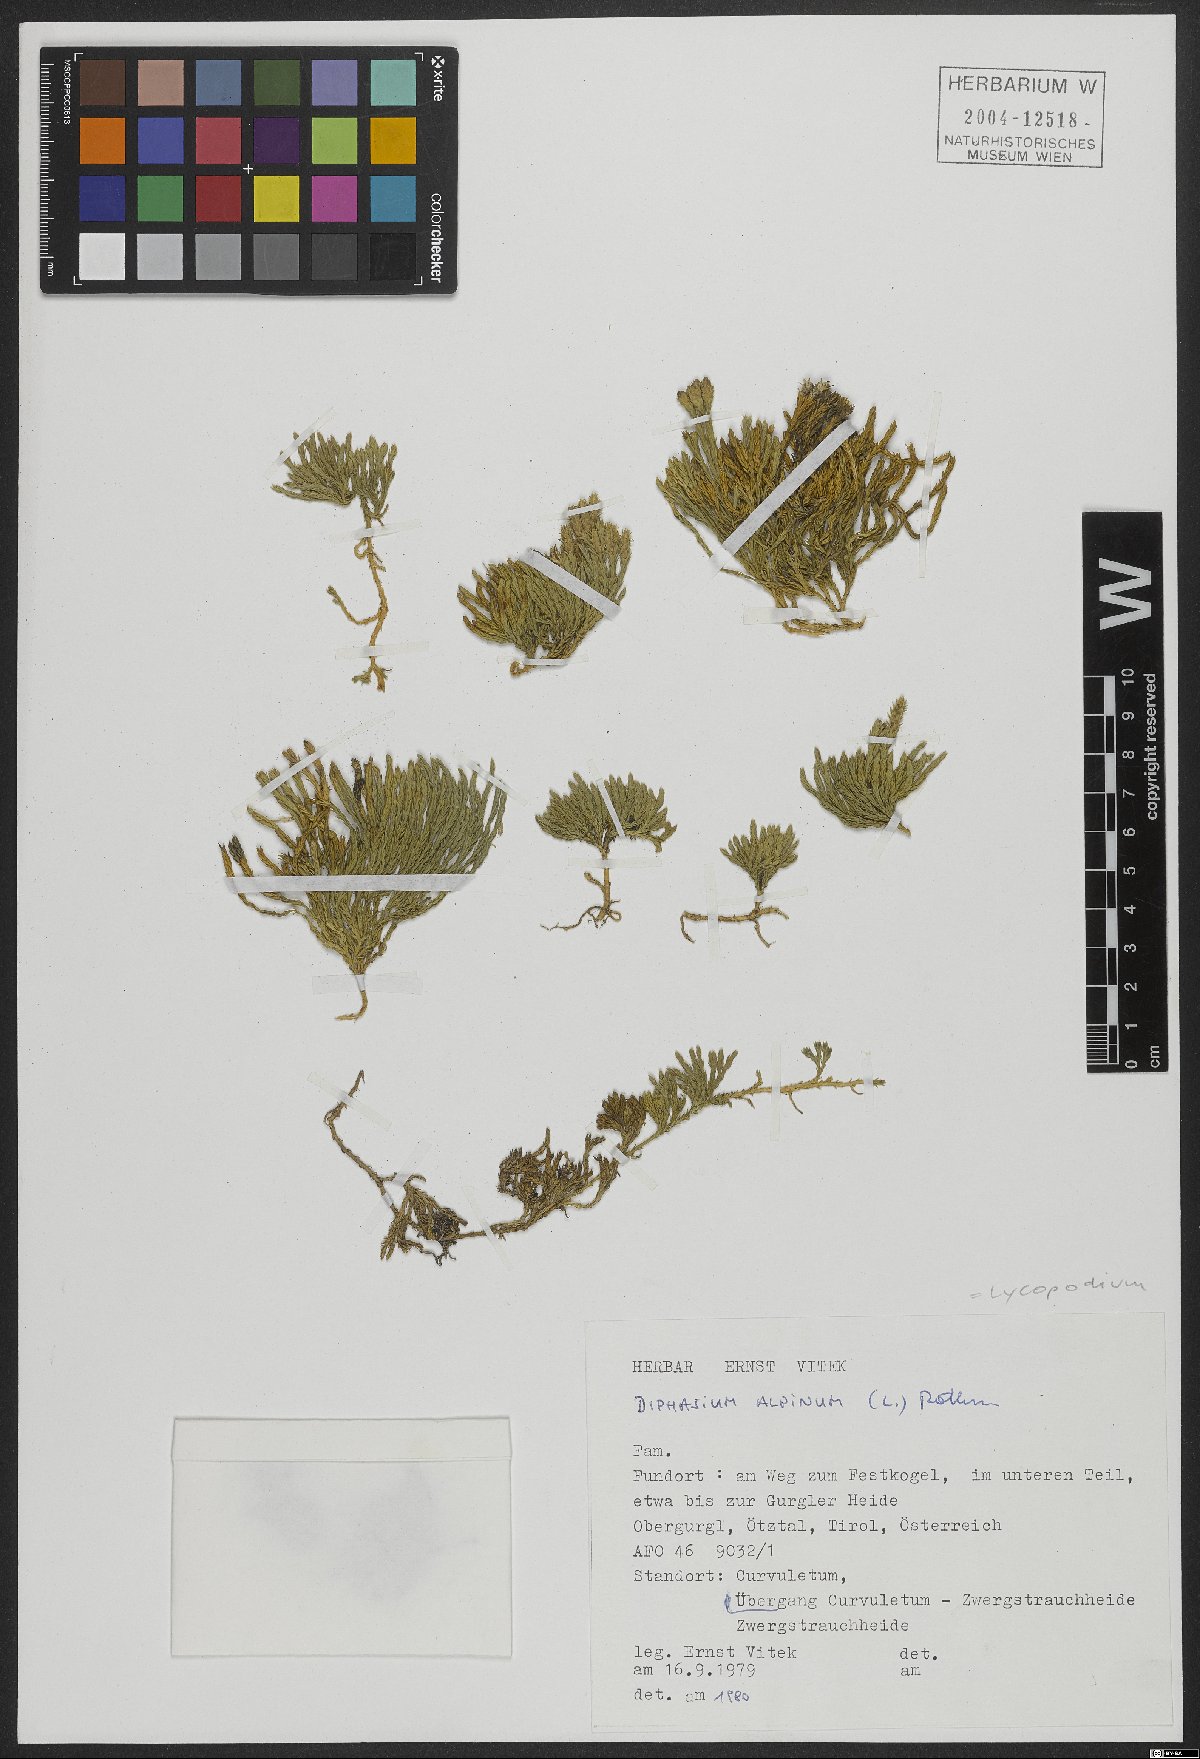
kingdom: Plantae
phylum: Tracheophyta
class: Lycopodiopsida
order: Lycopodiales
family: Lycopodiaceae
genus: Diphasiastrum
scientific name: Diphasiastrum alpinum
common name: Alpine clubmoss
